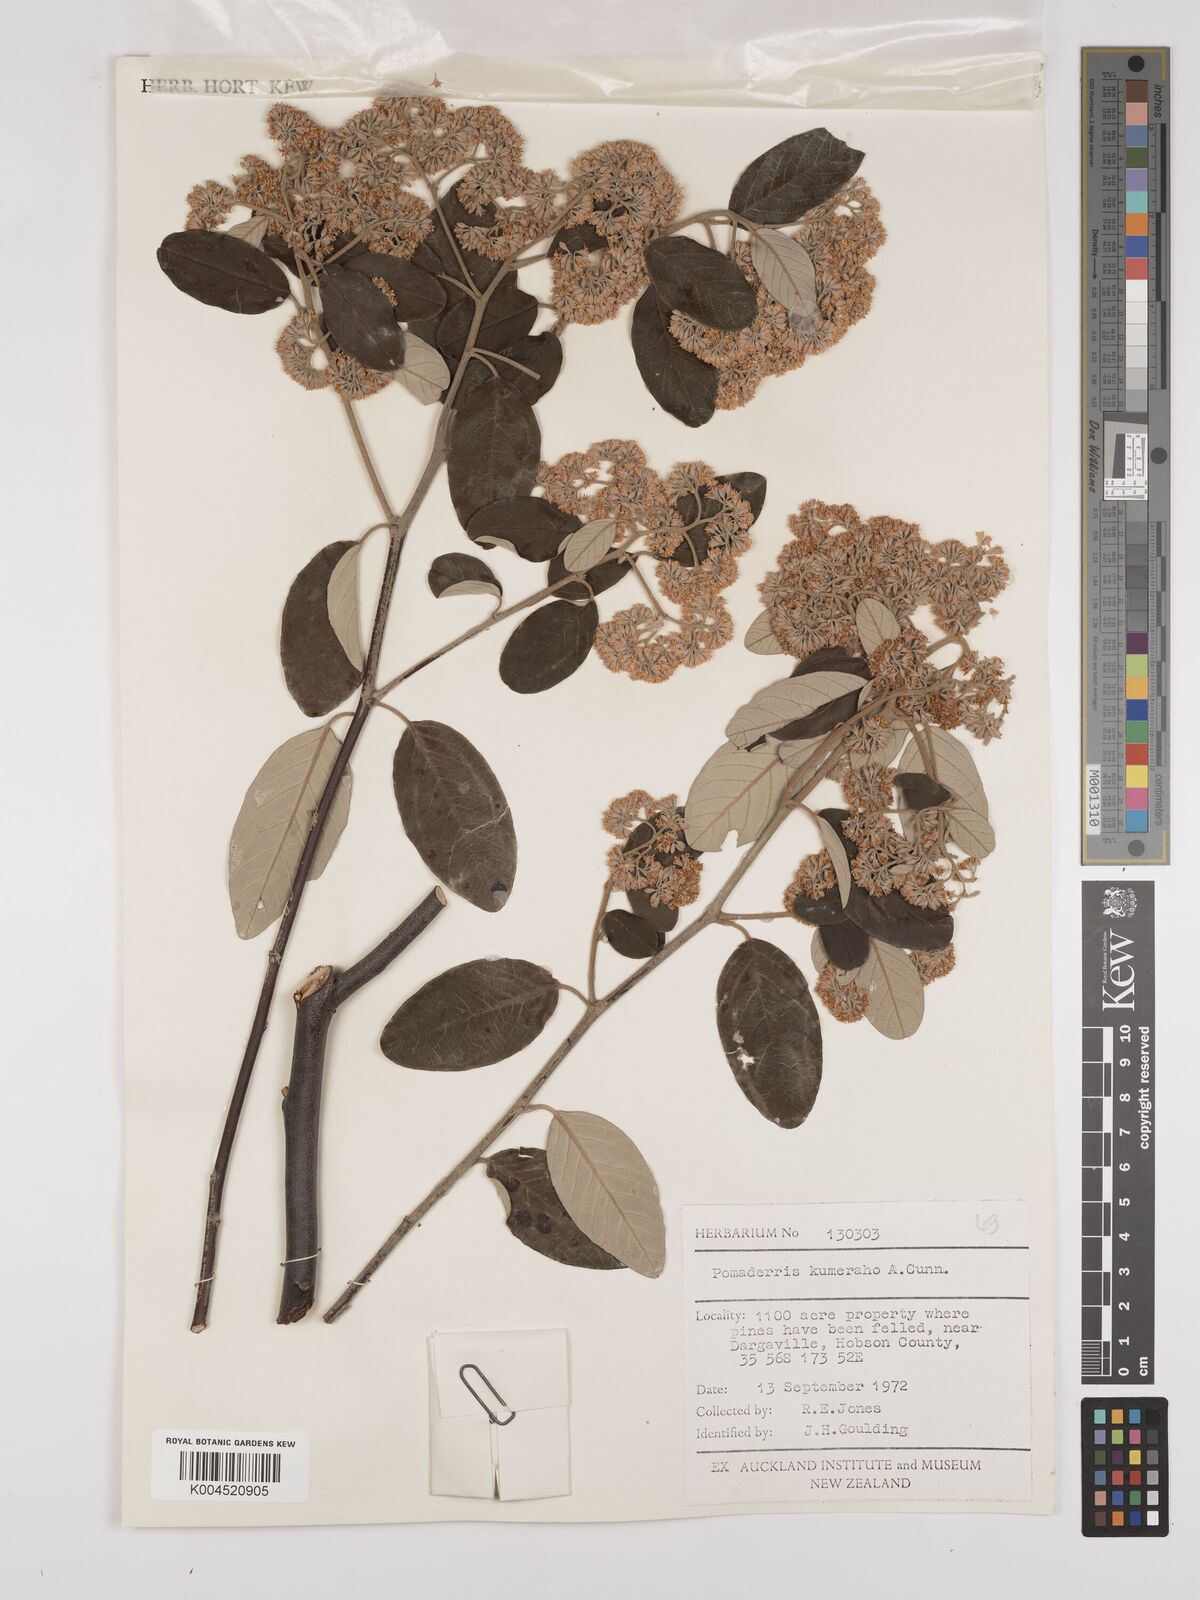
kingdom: Plantae
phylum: Tracheophyta
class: Magnoliopsida
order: Rosales
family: Rhamnaceae
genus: Pomaderris
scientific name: Pomaderris kumeraho
